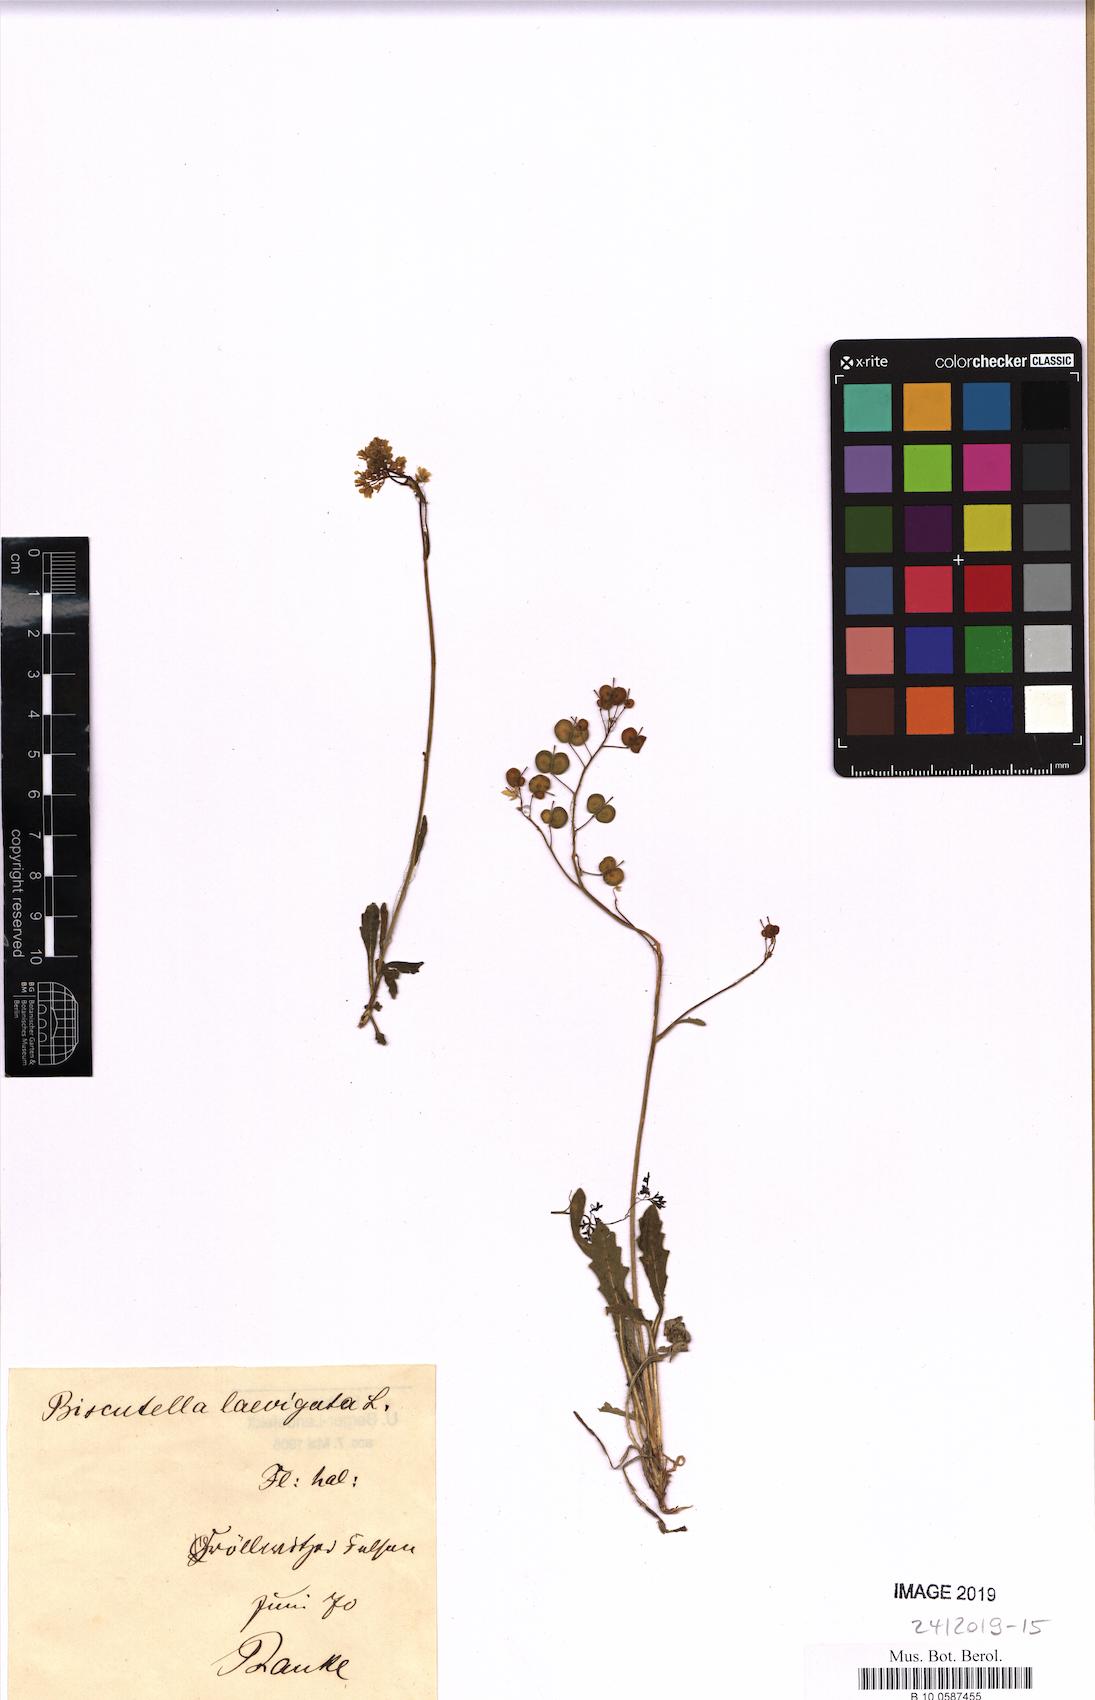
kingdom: Plantae
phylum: Tracheophyta
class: Magnoliopsida
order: Brassicales
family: Brassicaceae
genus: Biscutella
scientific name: Biscutella laevigata
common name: Buckler mustard
